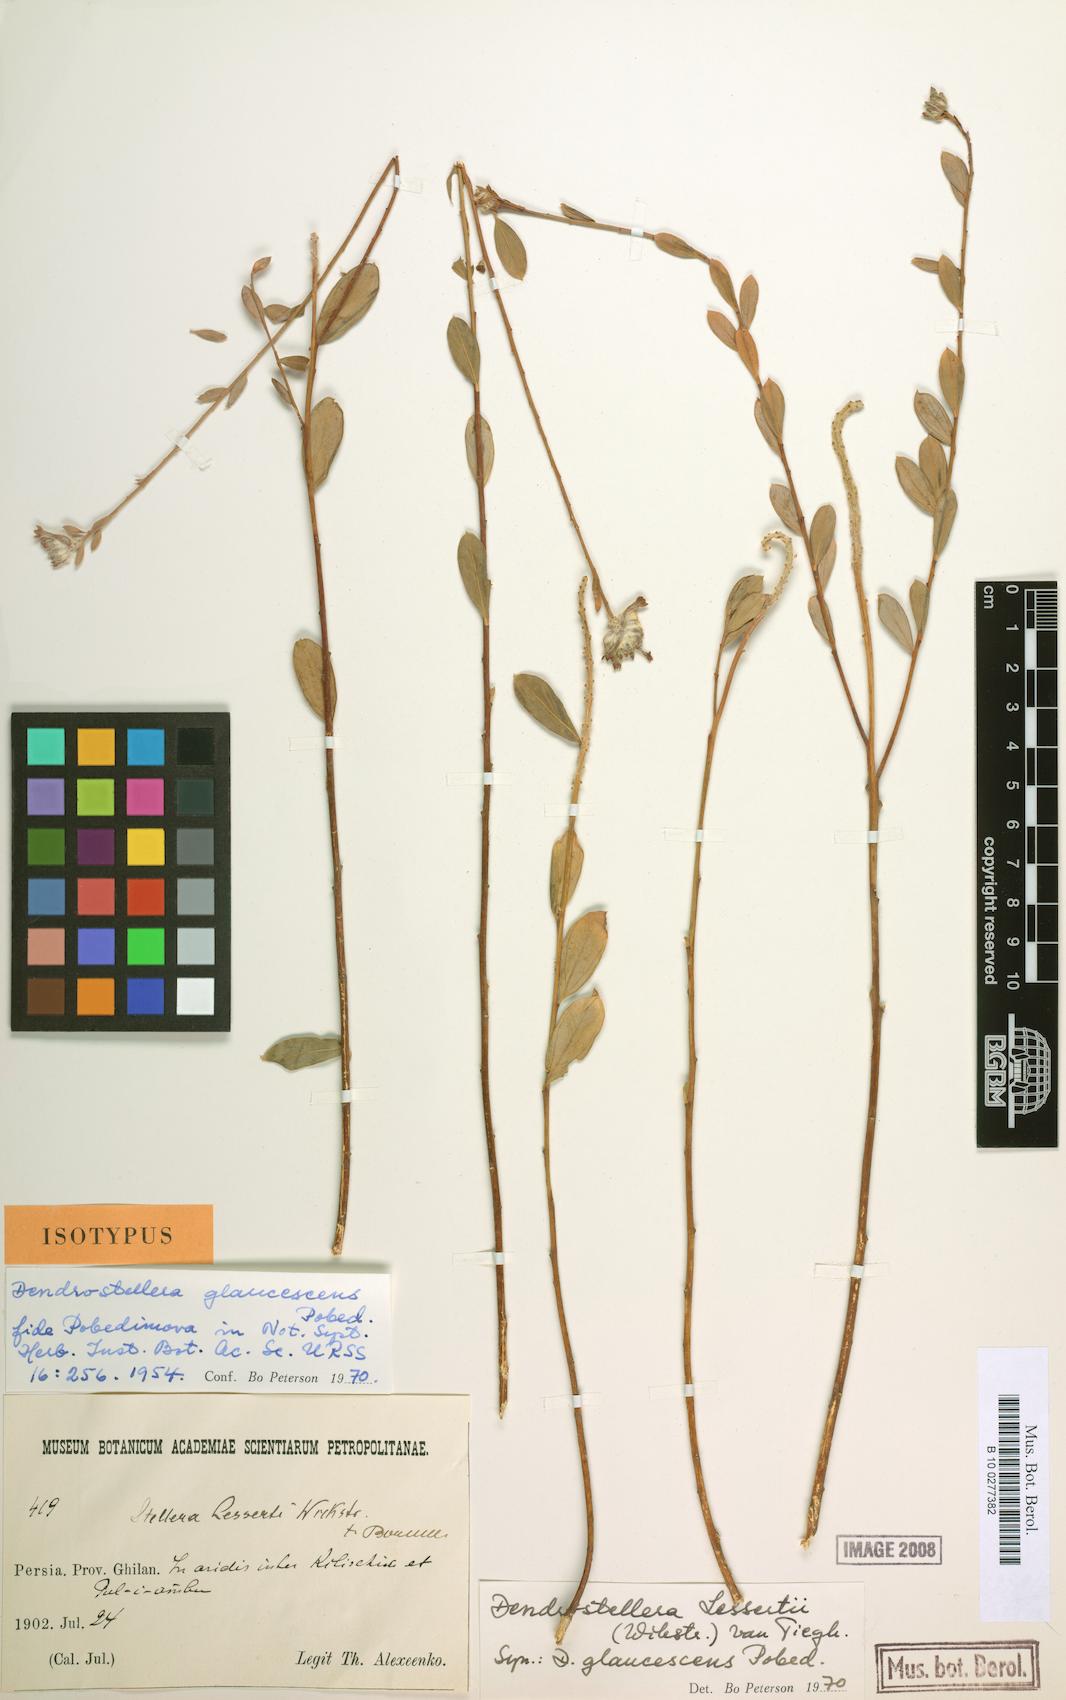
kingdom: Plantae
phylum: Tracheophyta
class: Magnoliopsida
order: Malvales
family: Thymelaeaceae
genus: Diarthron
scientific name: Diarthron lessertii
